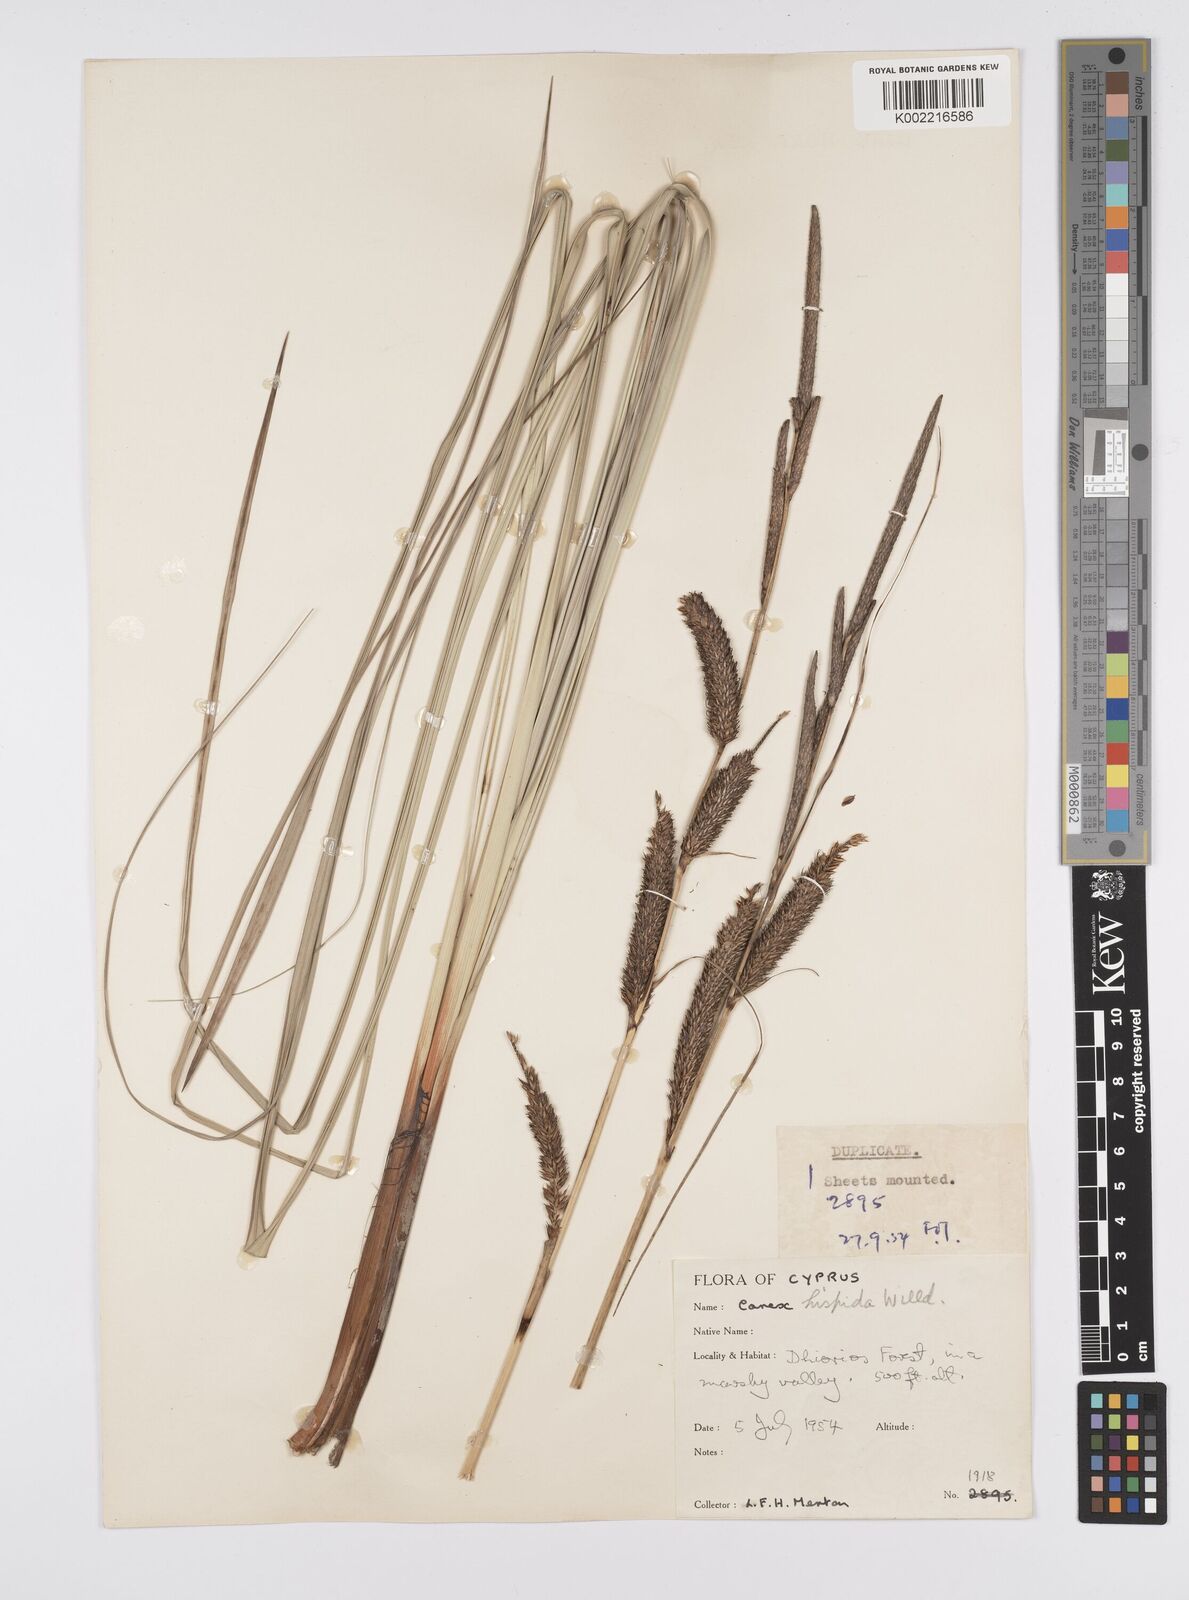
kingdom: Plantae
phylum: Tracheophyta
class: Liliopsida
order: Poales
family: Cyperaceae
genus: Carex
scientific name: Carex hispida
